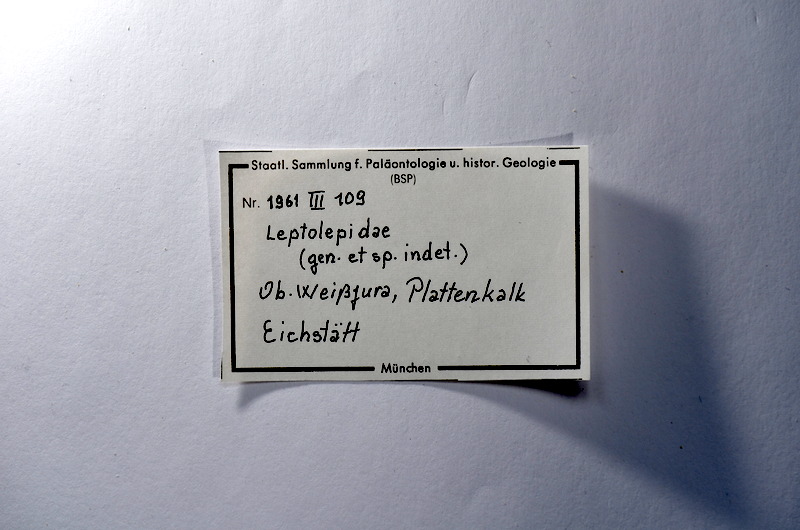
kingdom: Animalia
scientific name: Animalia
